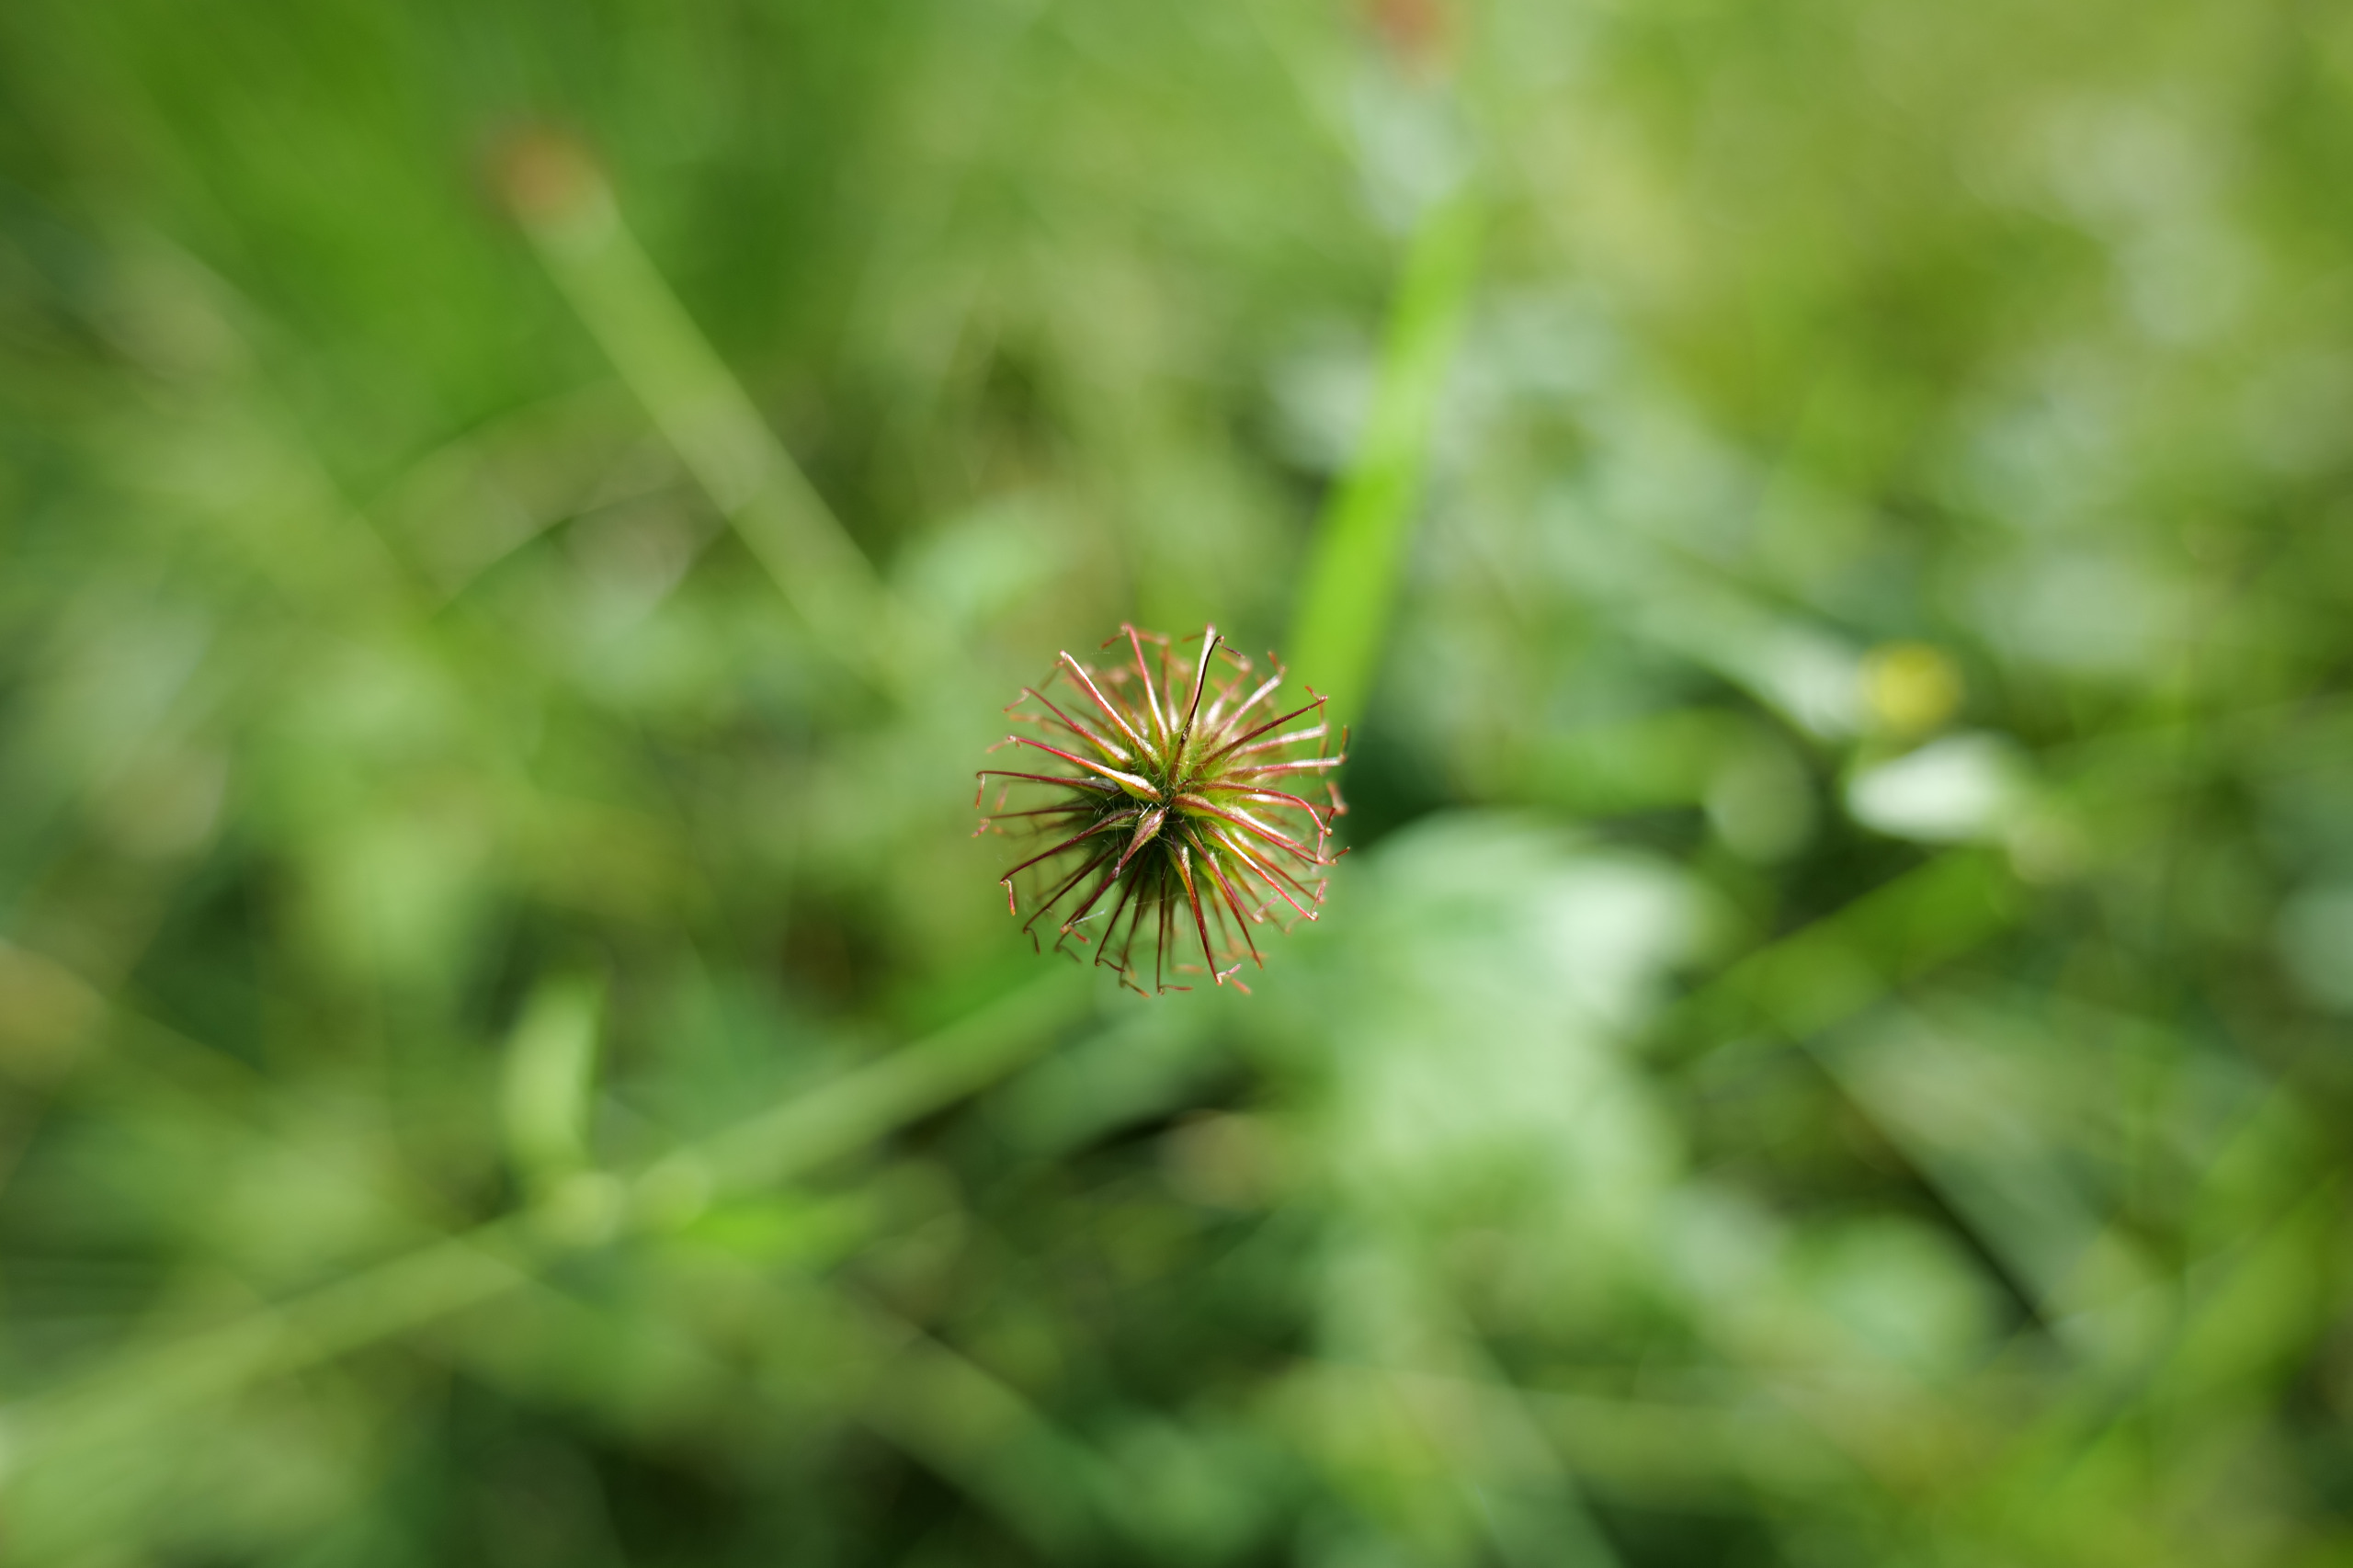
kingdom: Plantae
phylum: Tracheophyta
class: Magnoliopsida
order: Rosales
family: Rosaceae
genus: Geum
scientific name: Geum urbanum
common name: Feber-nellikerod
